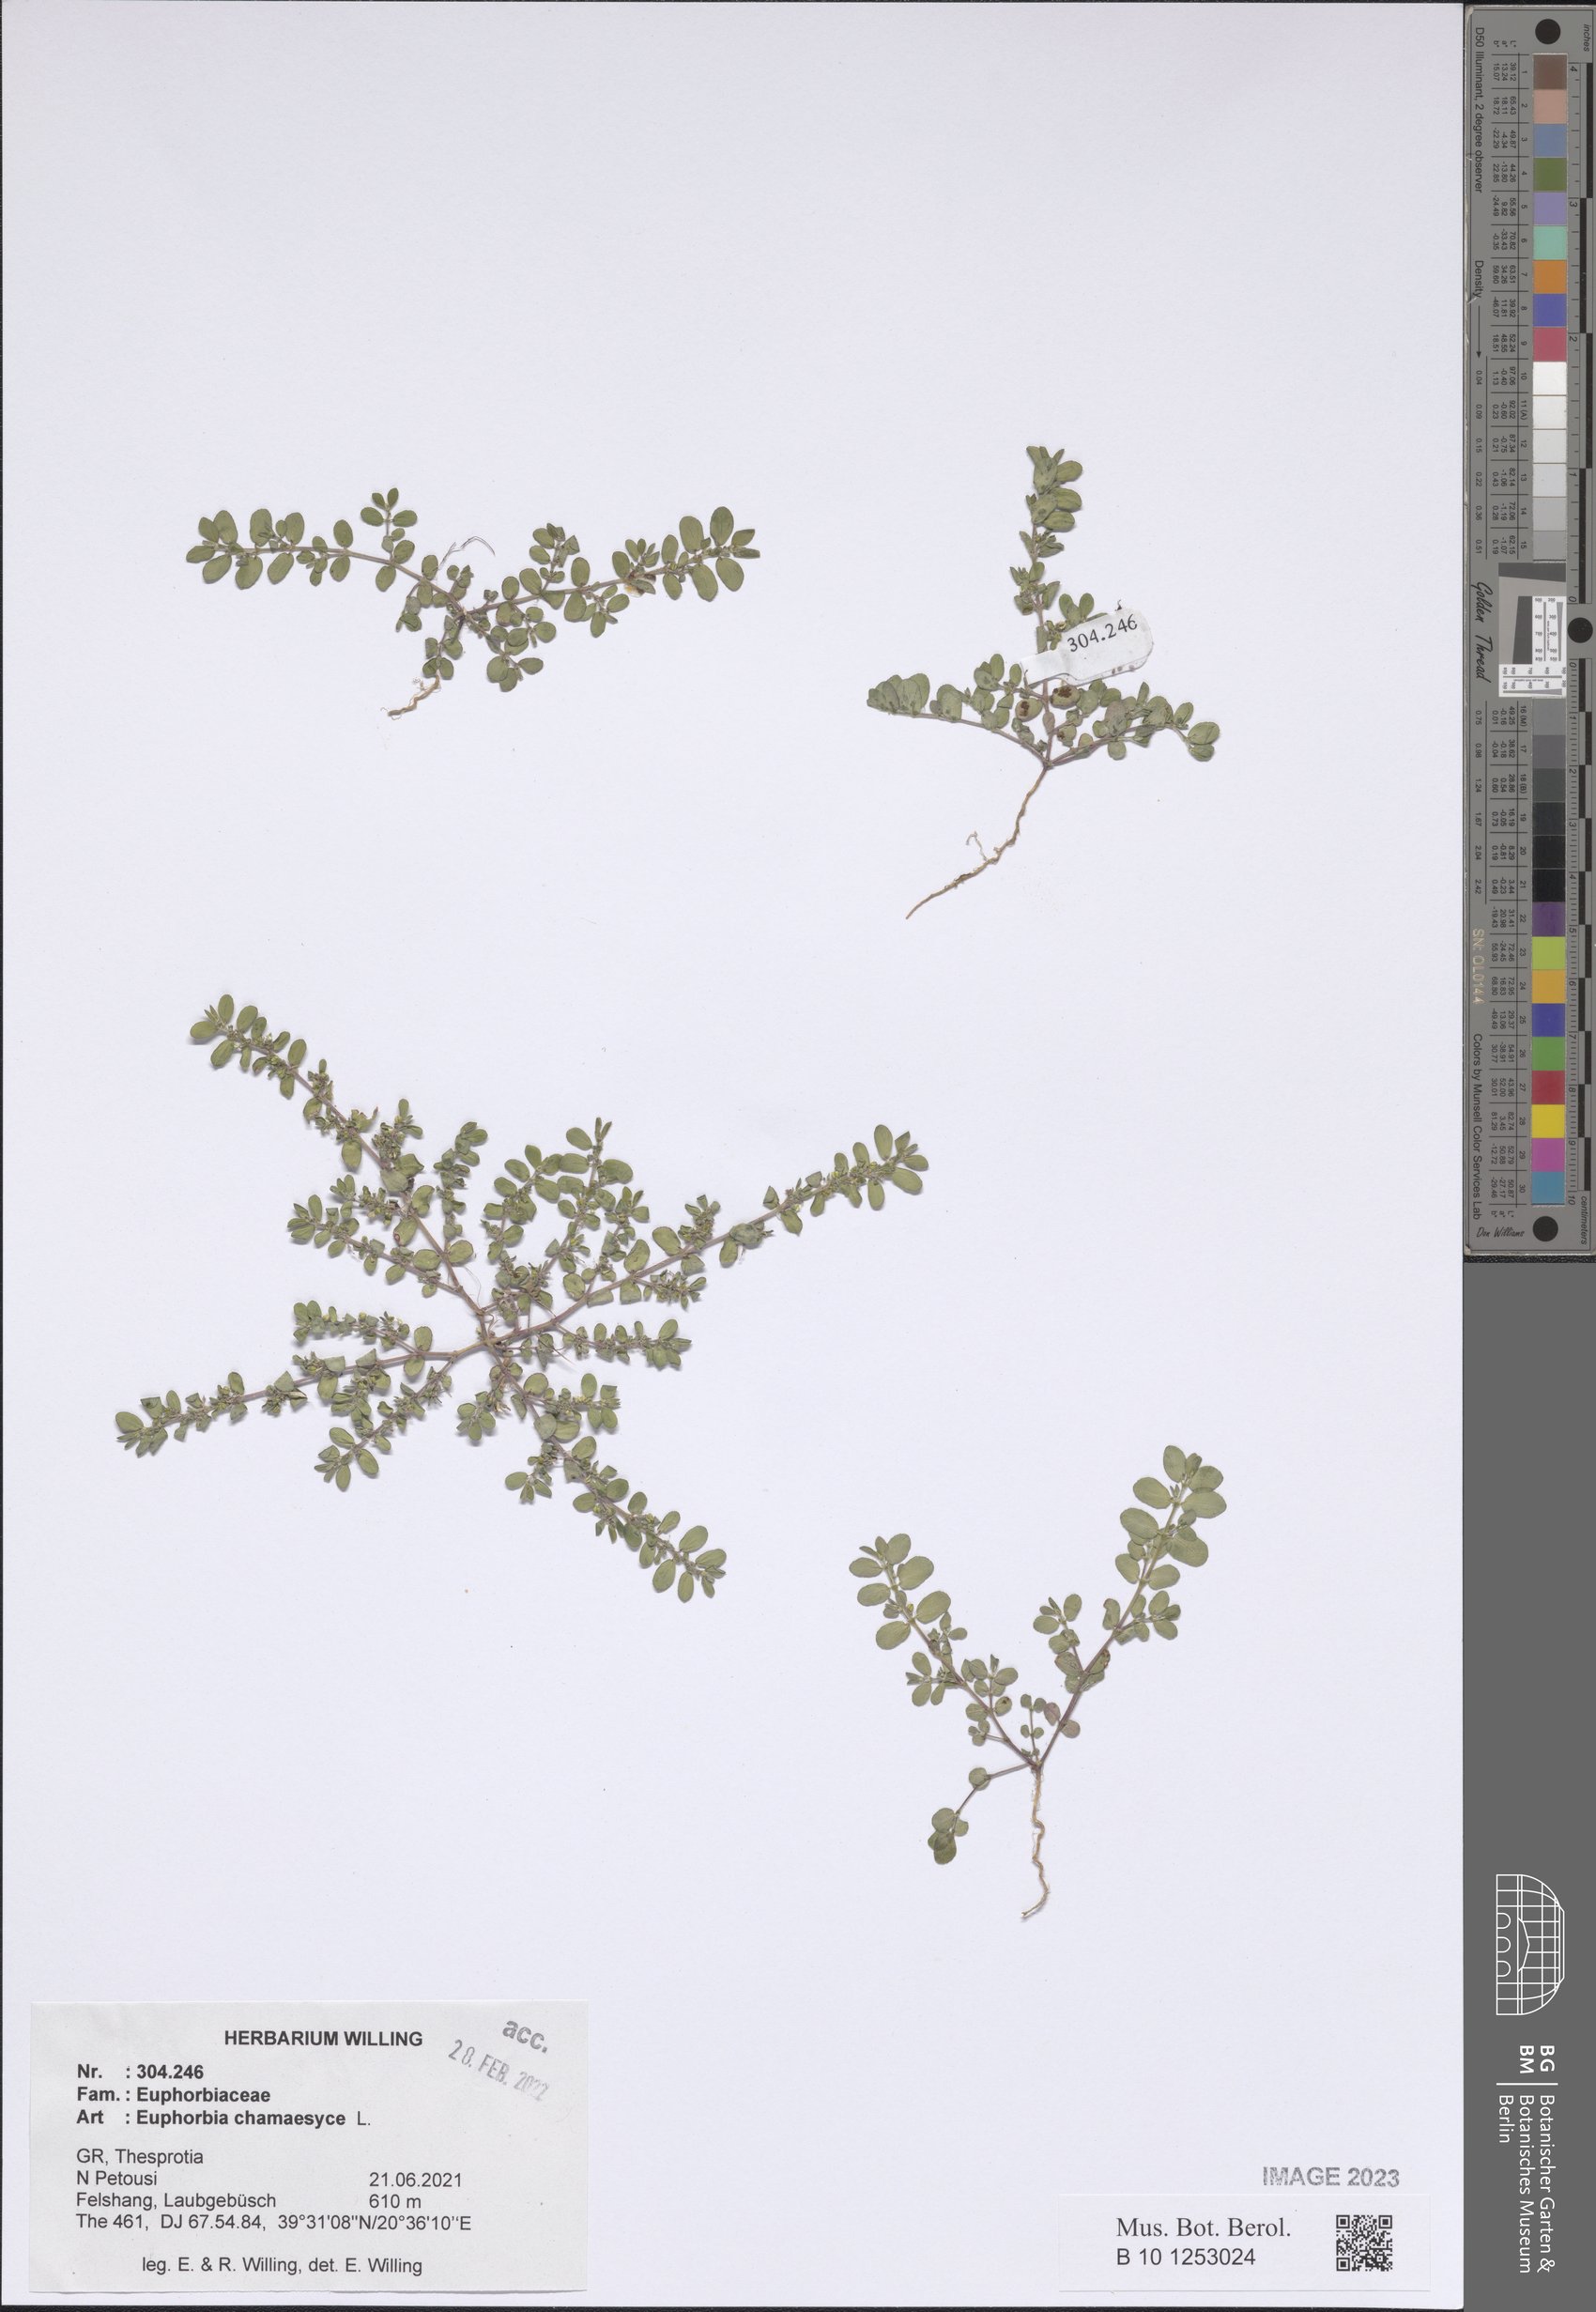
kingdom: Plantae
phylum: Tracheophyta
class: Magnoliopsida
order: Malpighiales
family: Euphorbiaceae
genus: Euphorbia
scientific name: Euphorbia chamaesyce
